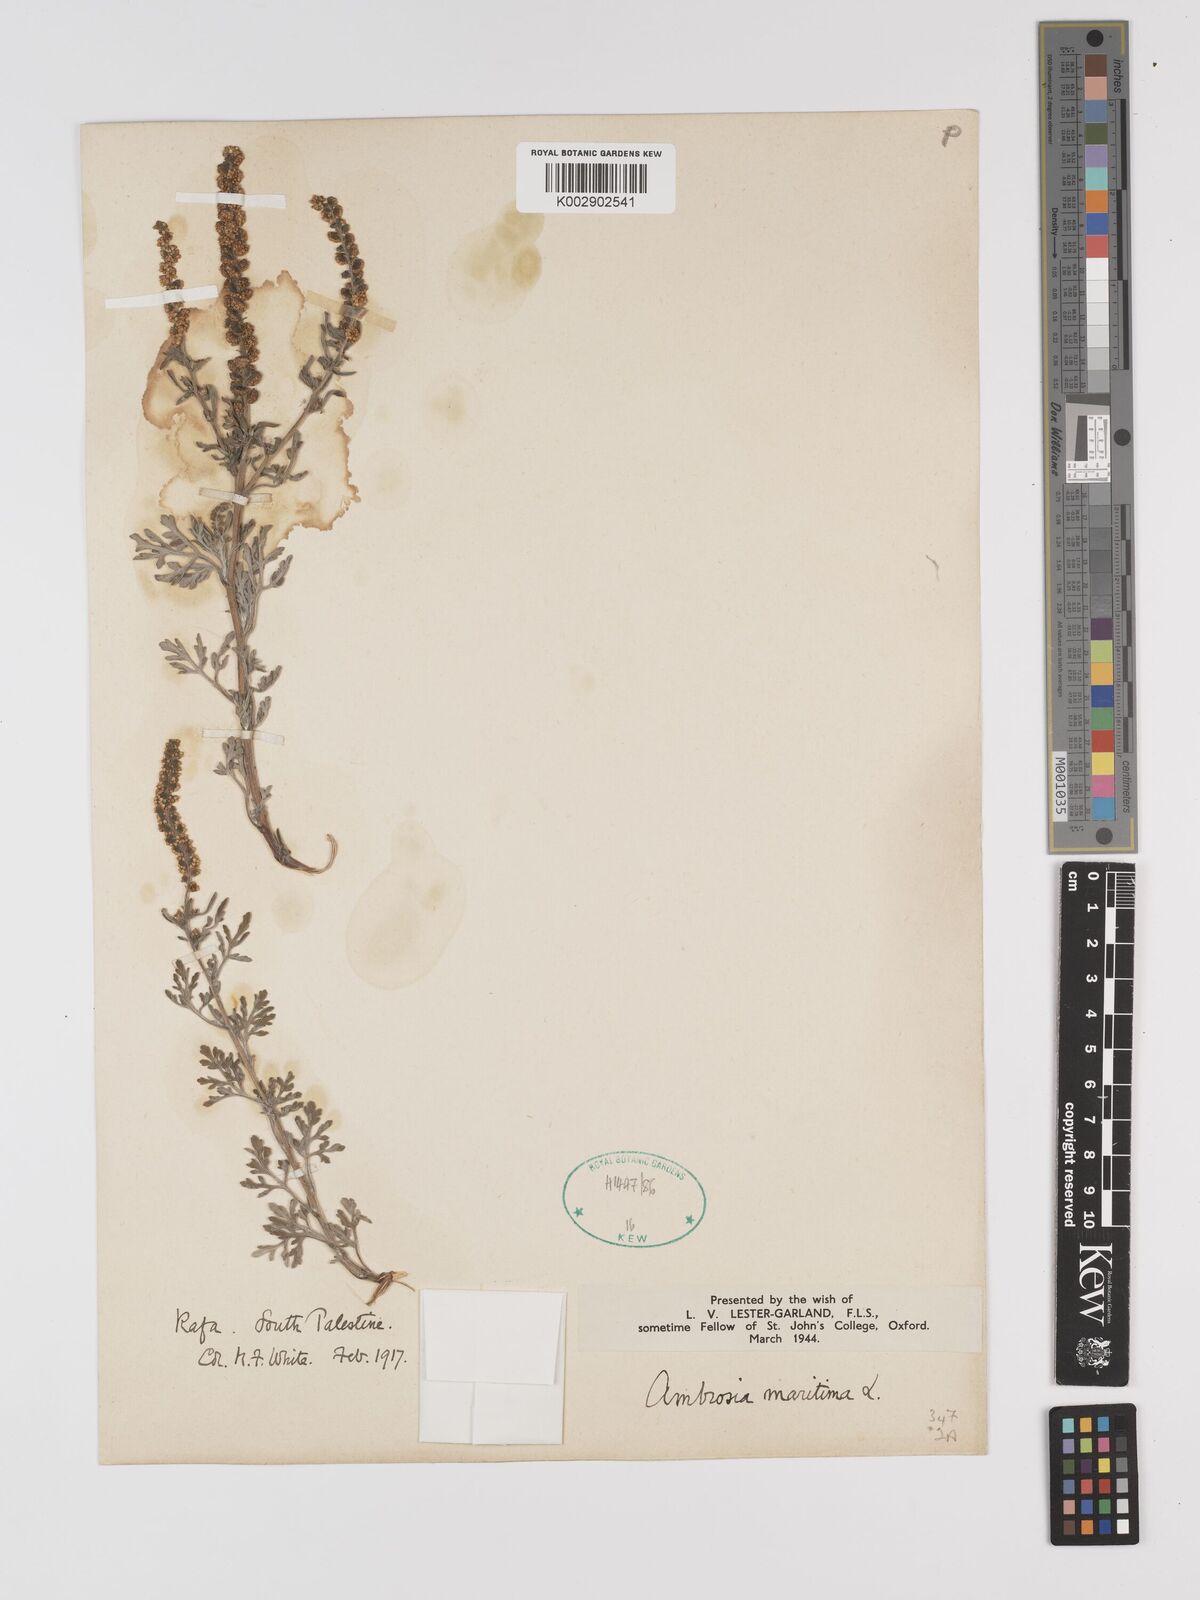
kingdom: Plantae
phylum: Tracheophyta
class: Magnoliopsida
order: Asterales
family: Asteraceae
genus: Ambrosia
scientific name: Ambrosia maritima
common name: Sea ambrosia
